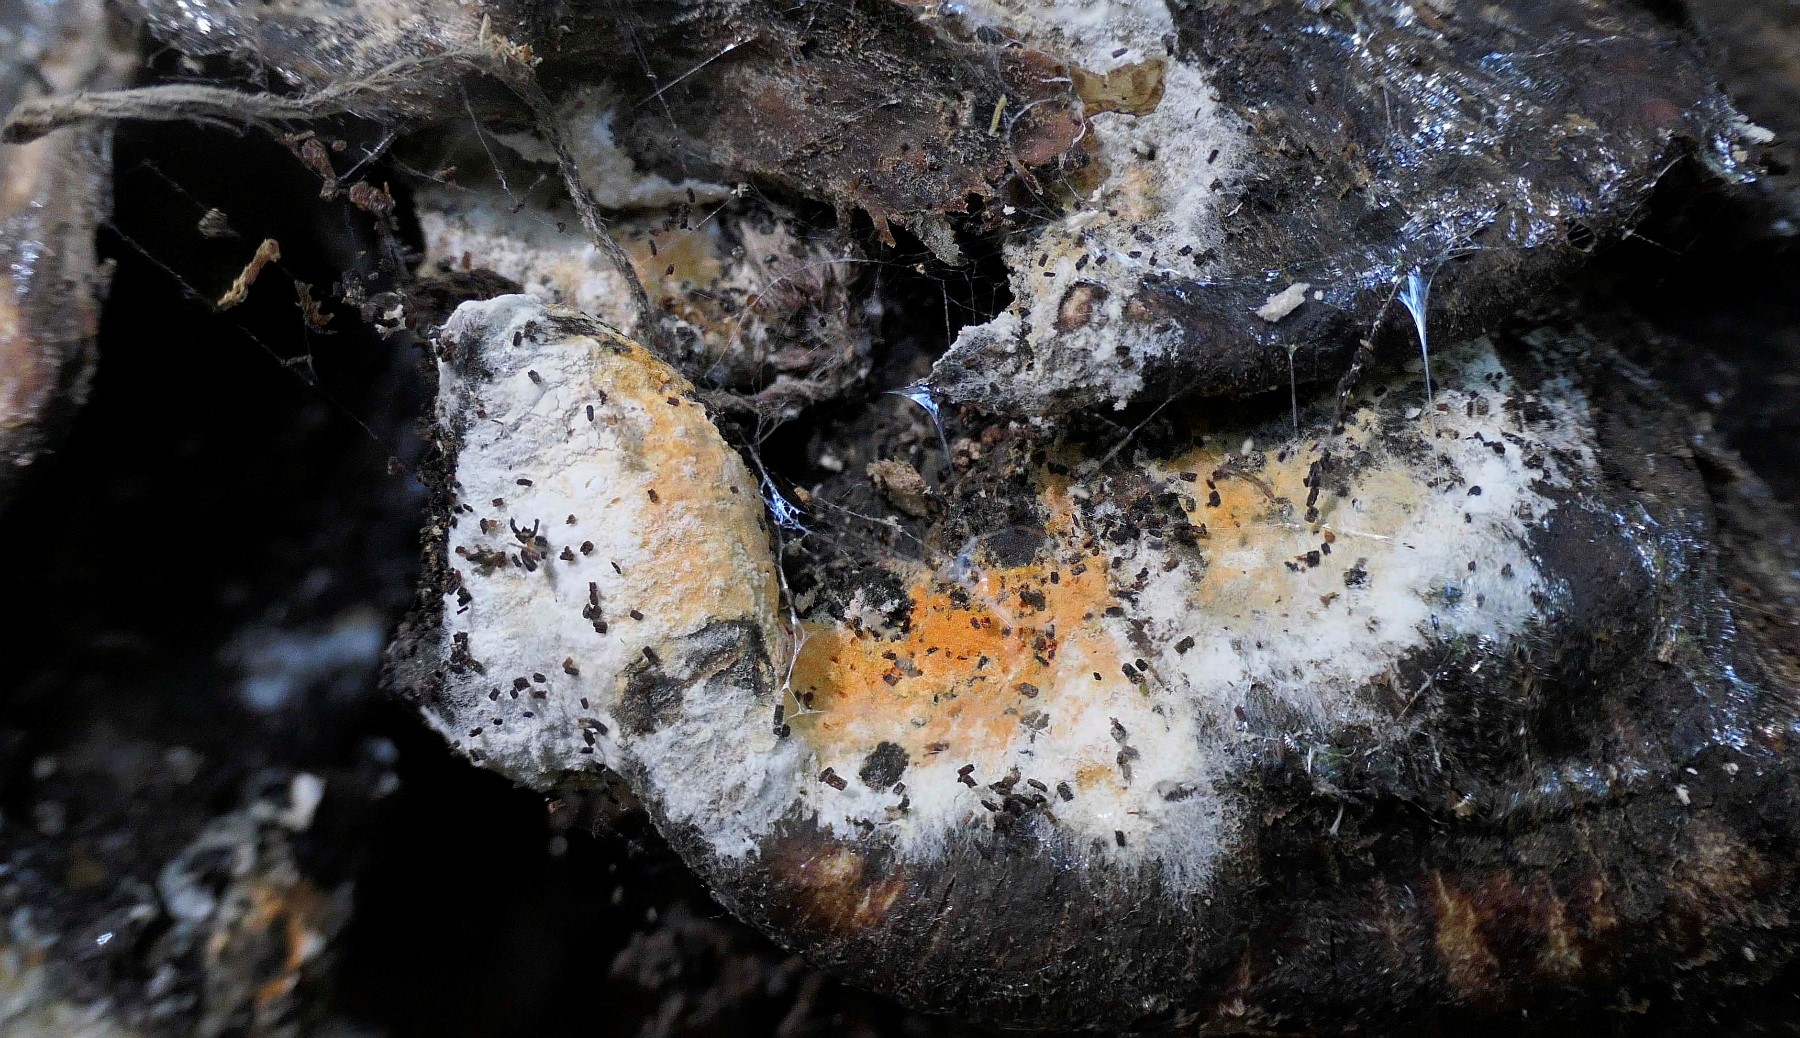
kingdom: Fungi
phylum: Ascomycota
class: Sordariomycetes
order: Hypocreales
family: Hypocreaceae
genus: Hypomyces
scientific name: Hypomyces aurantius
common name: almindelig snylteskorpe
